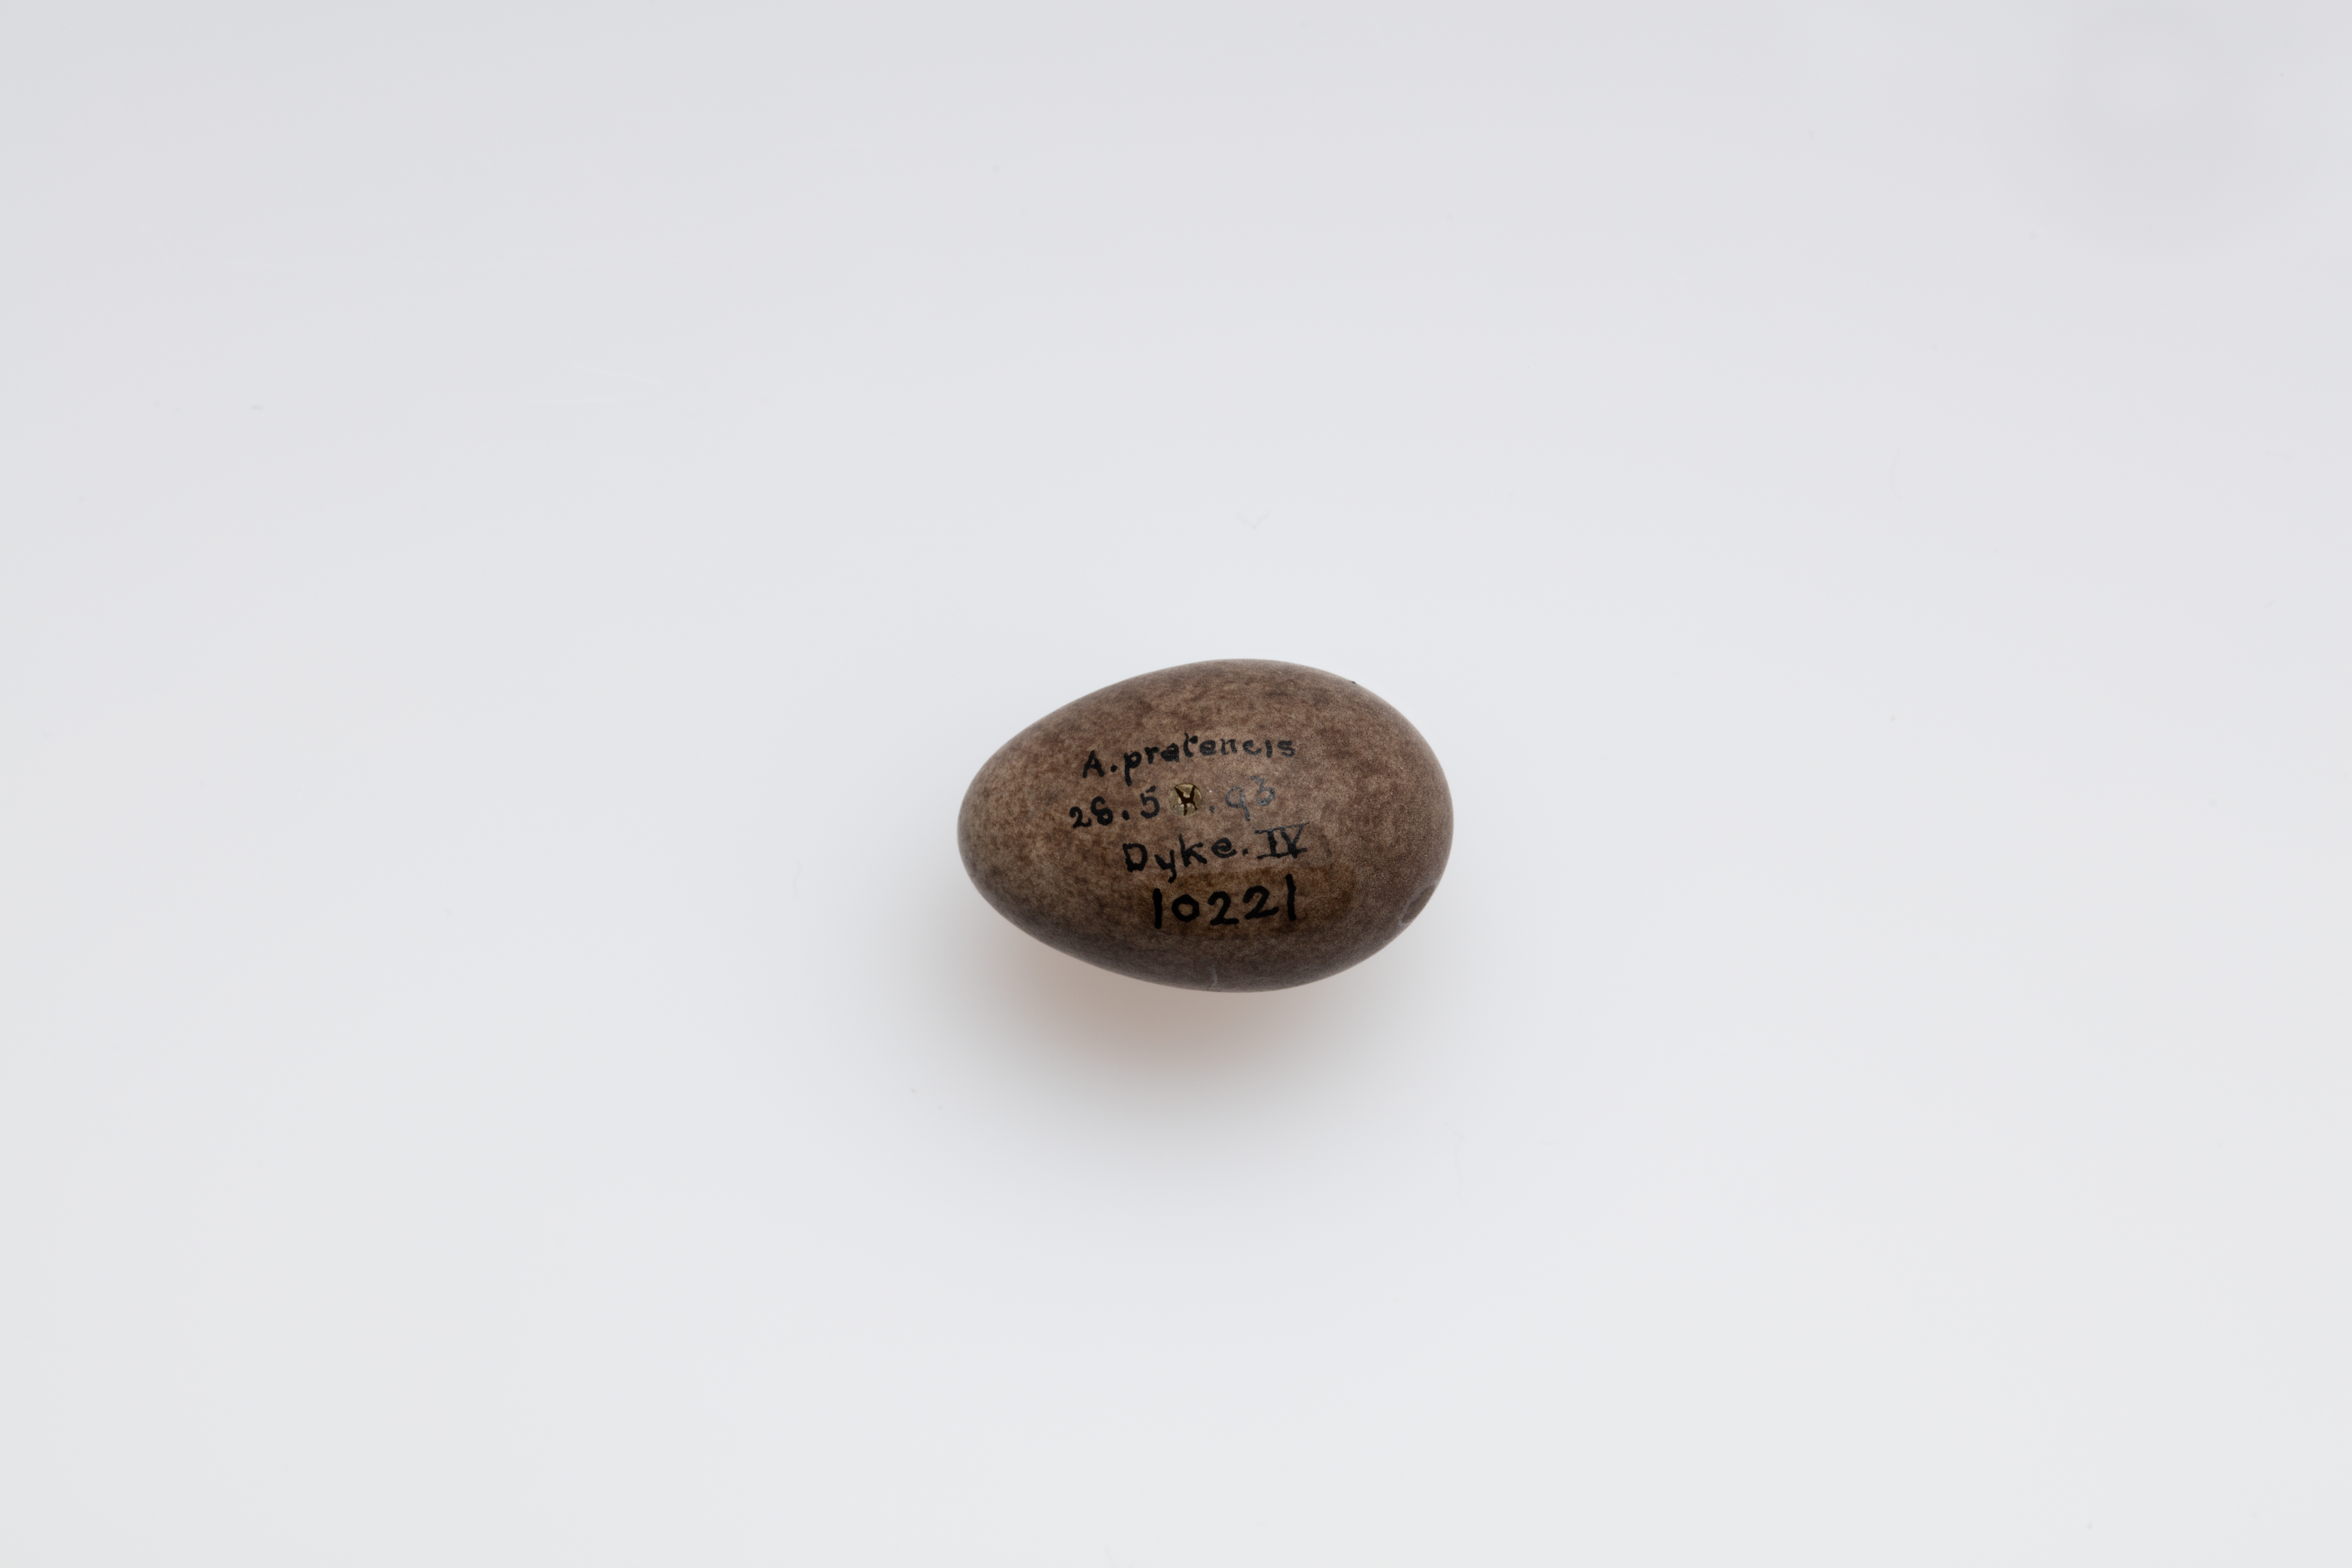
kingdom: Animalia
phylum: Chordata
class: Aves
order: Passeriformes
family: Motacillidae
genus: Anthus
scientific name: Anthus pratensis
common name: Meadow pipit
